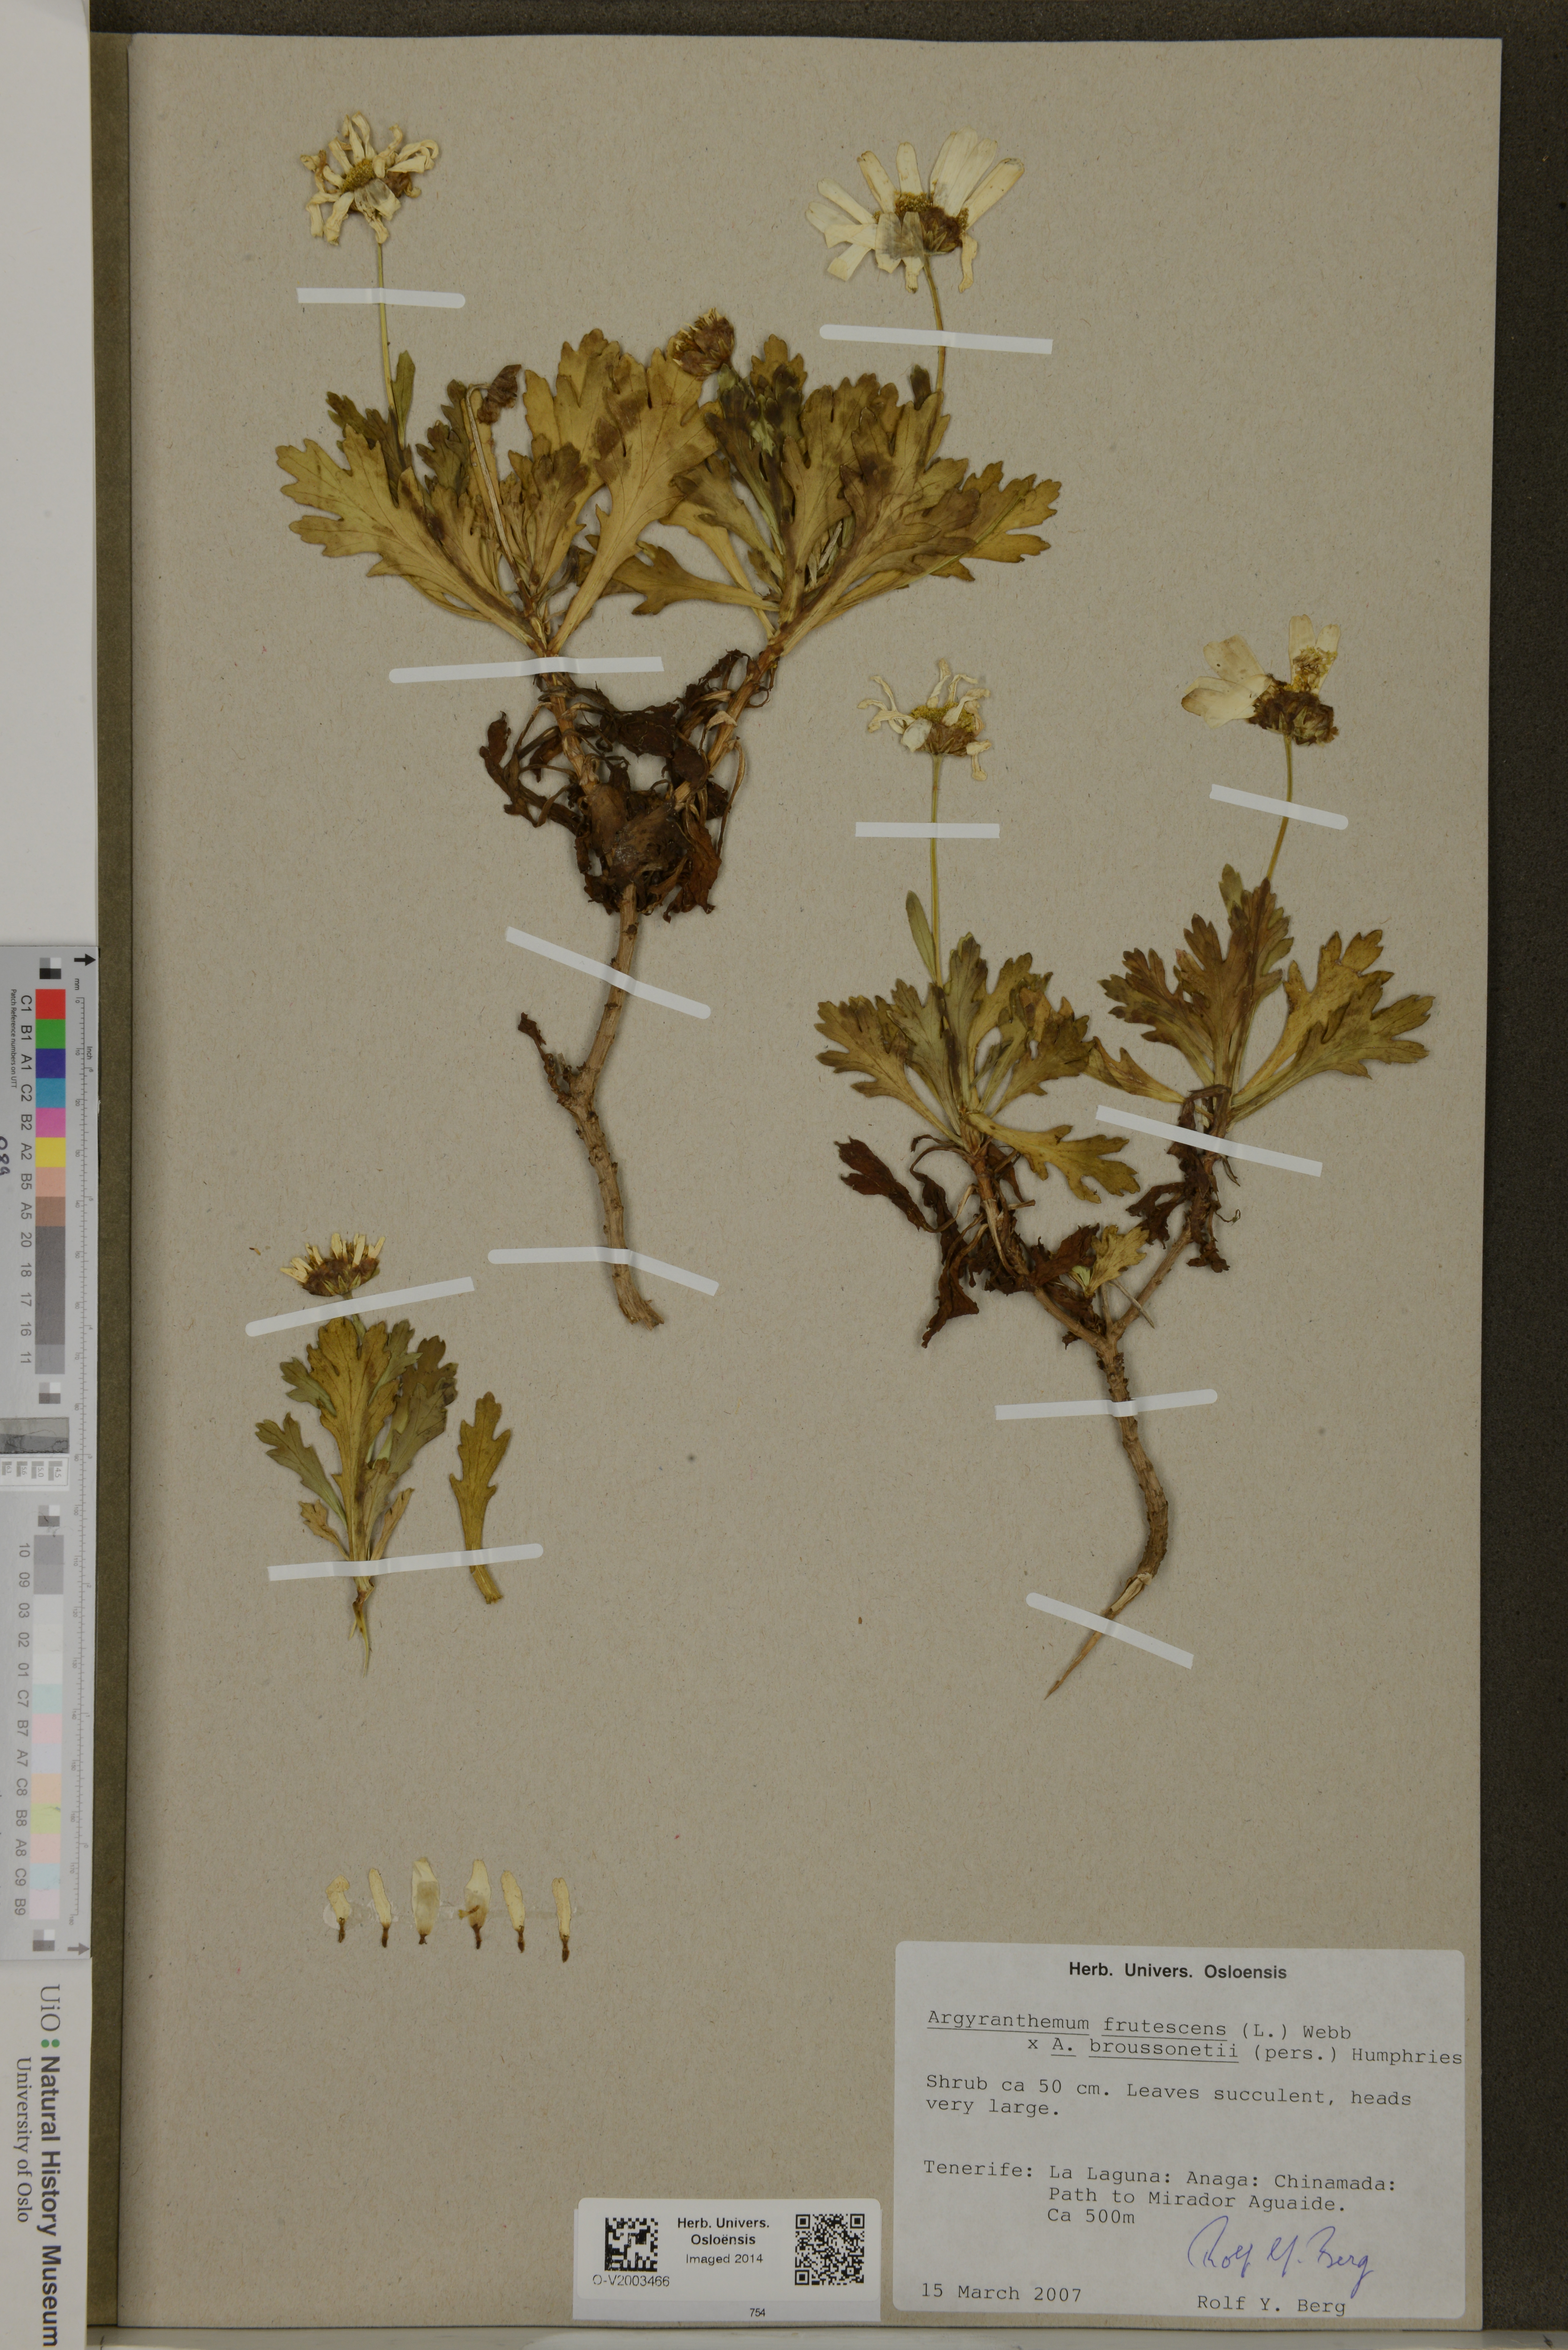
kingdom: Plantae
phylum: Tracheophyta
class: Magnoliopsida
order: Asterales
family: Asteraceae
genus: Argyranthemum
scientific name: Argyranthemum
